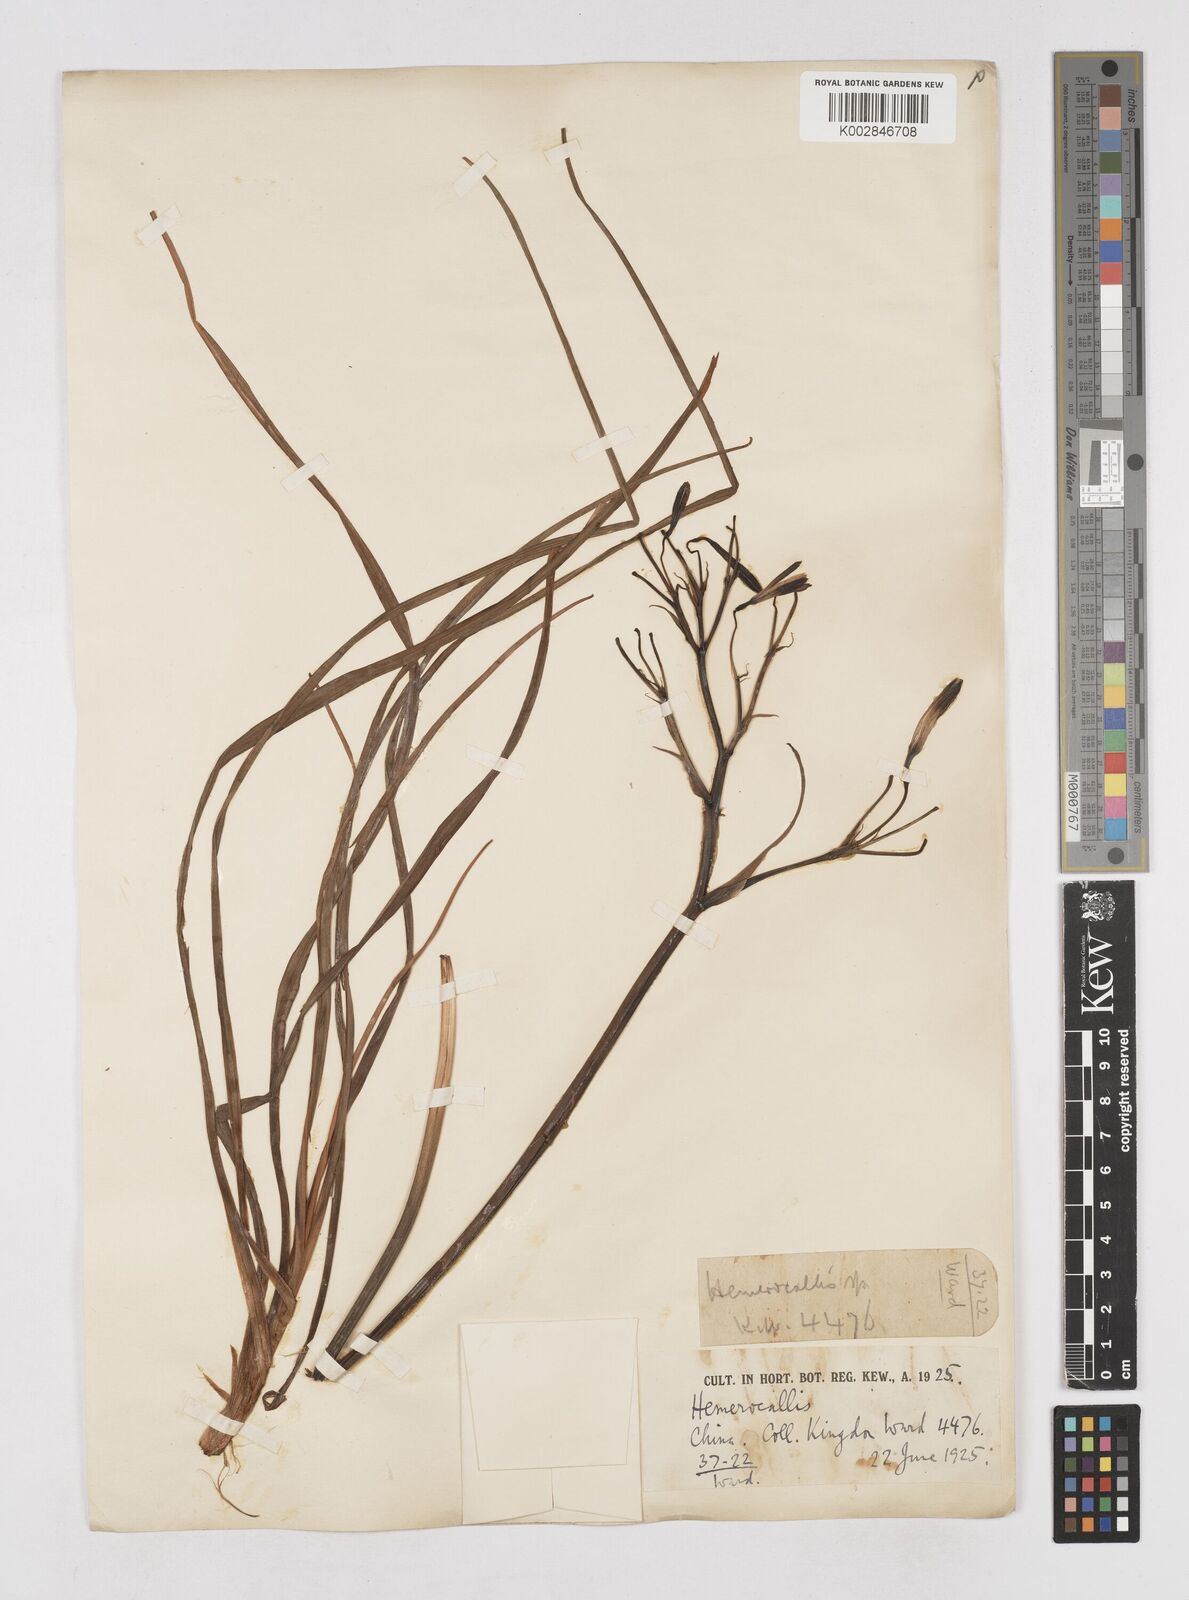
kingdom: Plantae
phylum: Tracheophyta
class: Liliopsida
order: Asparagales
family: Asphodelaceae
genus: Hemerocallis
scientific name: Hemerocallis
